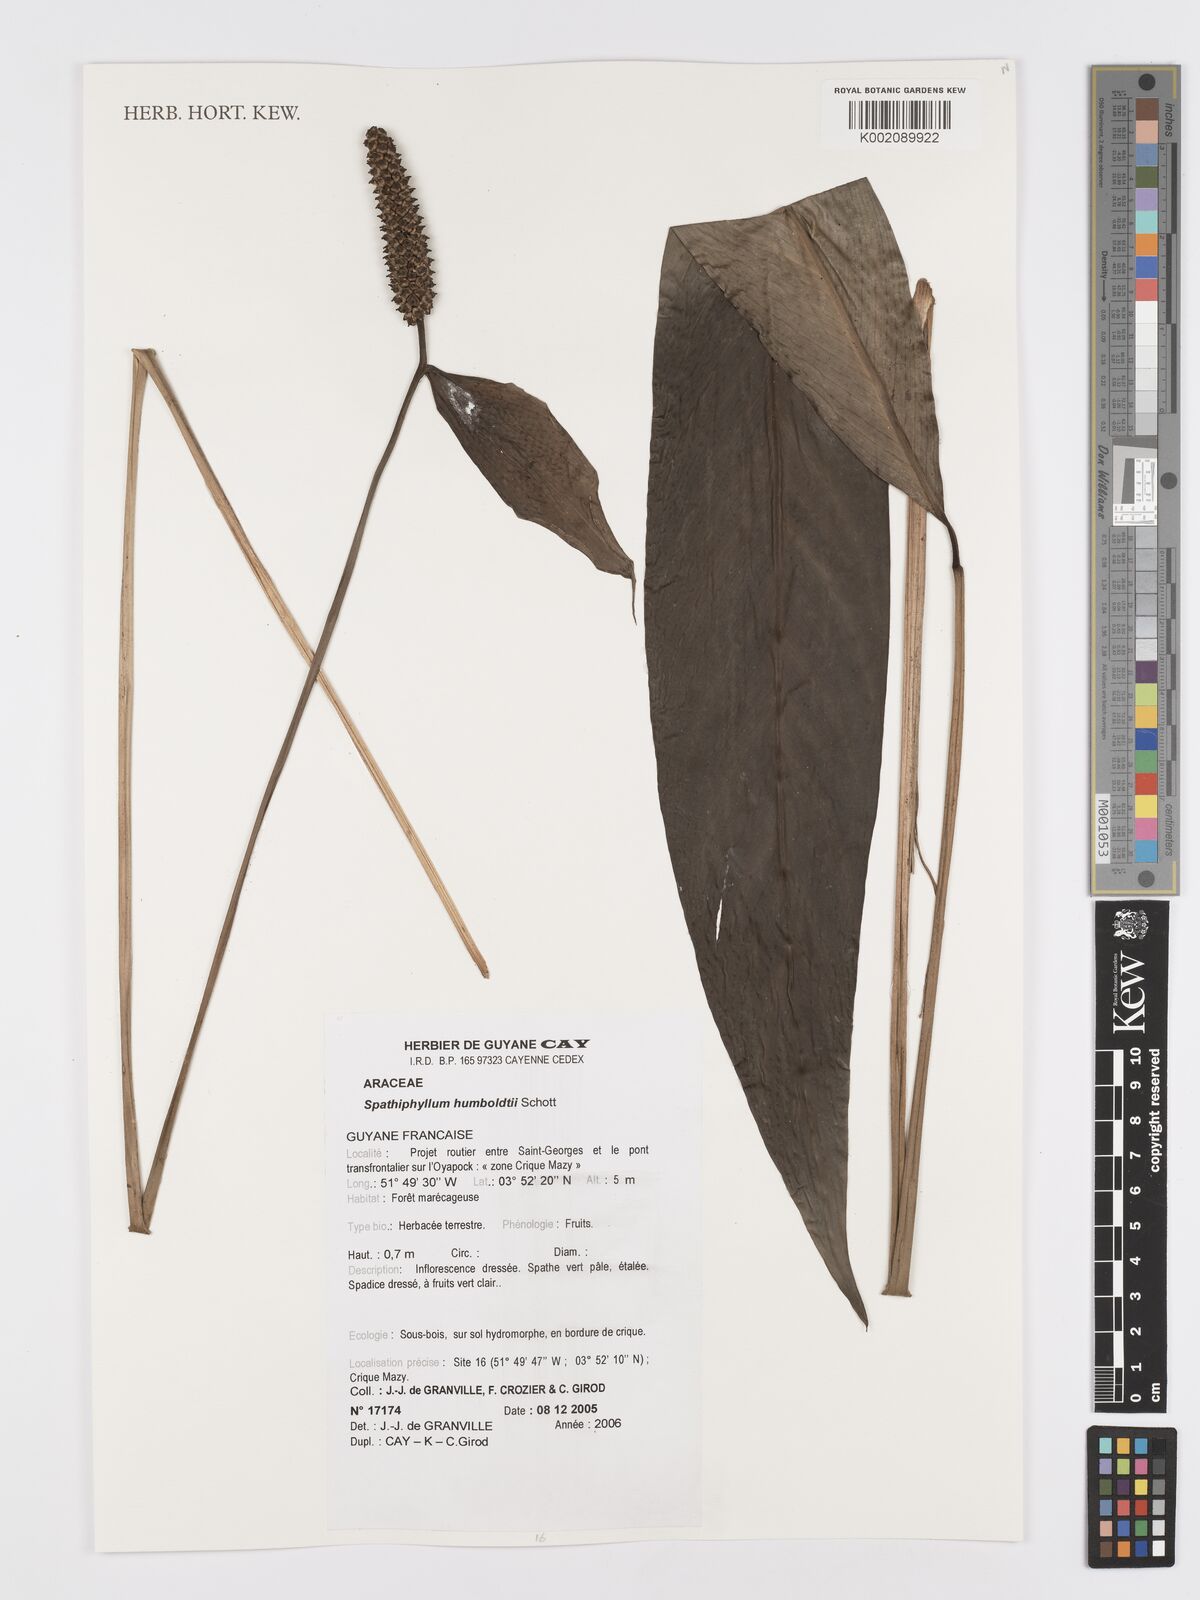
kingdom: Plantae
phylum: Tracheophyta
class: Liliopsida
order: Alismatales
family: Araceae
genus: Spathiphyllum
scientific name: Spathiphyllum humboldtii
